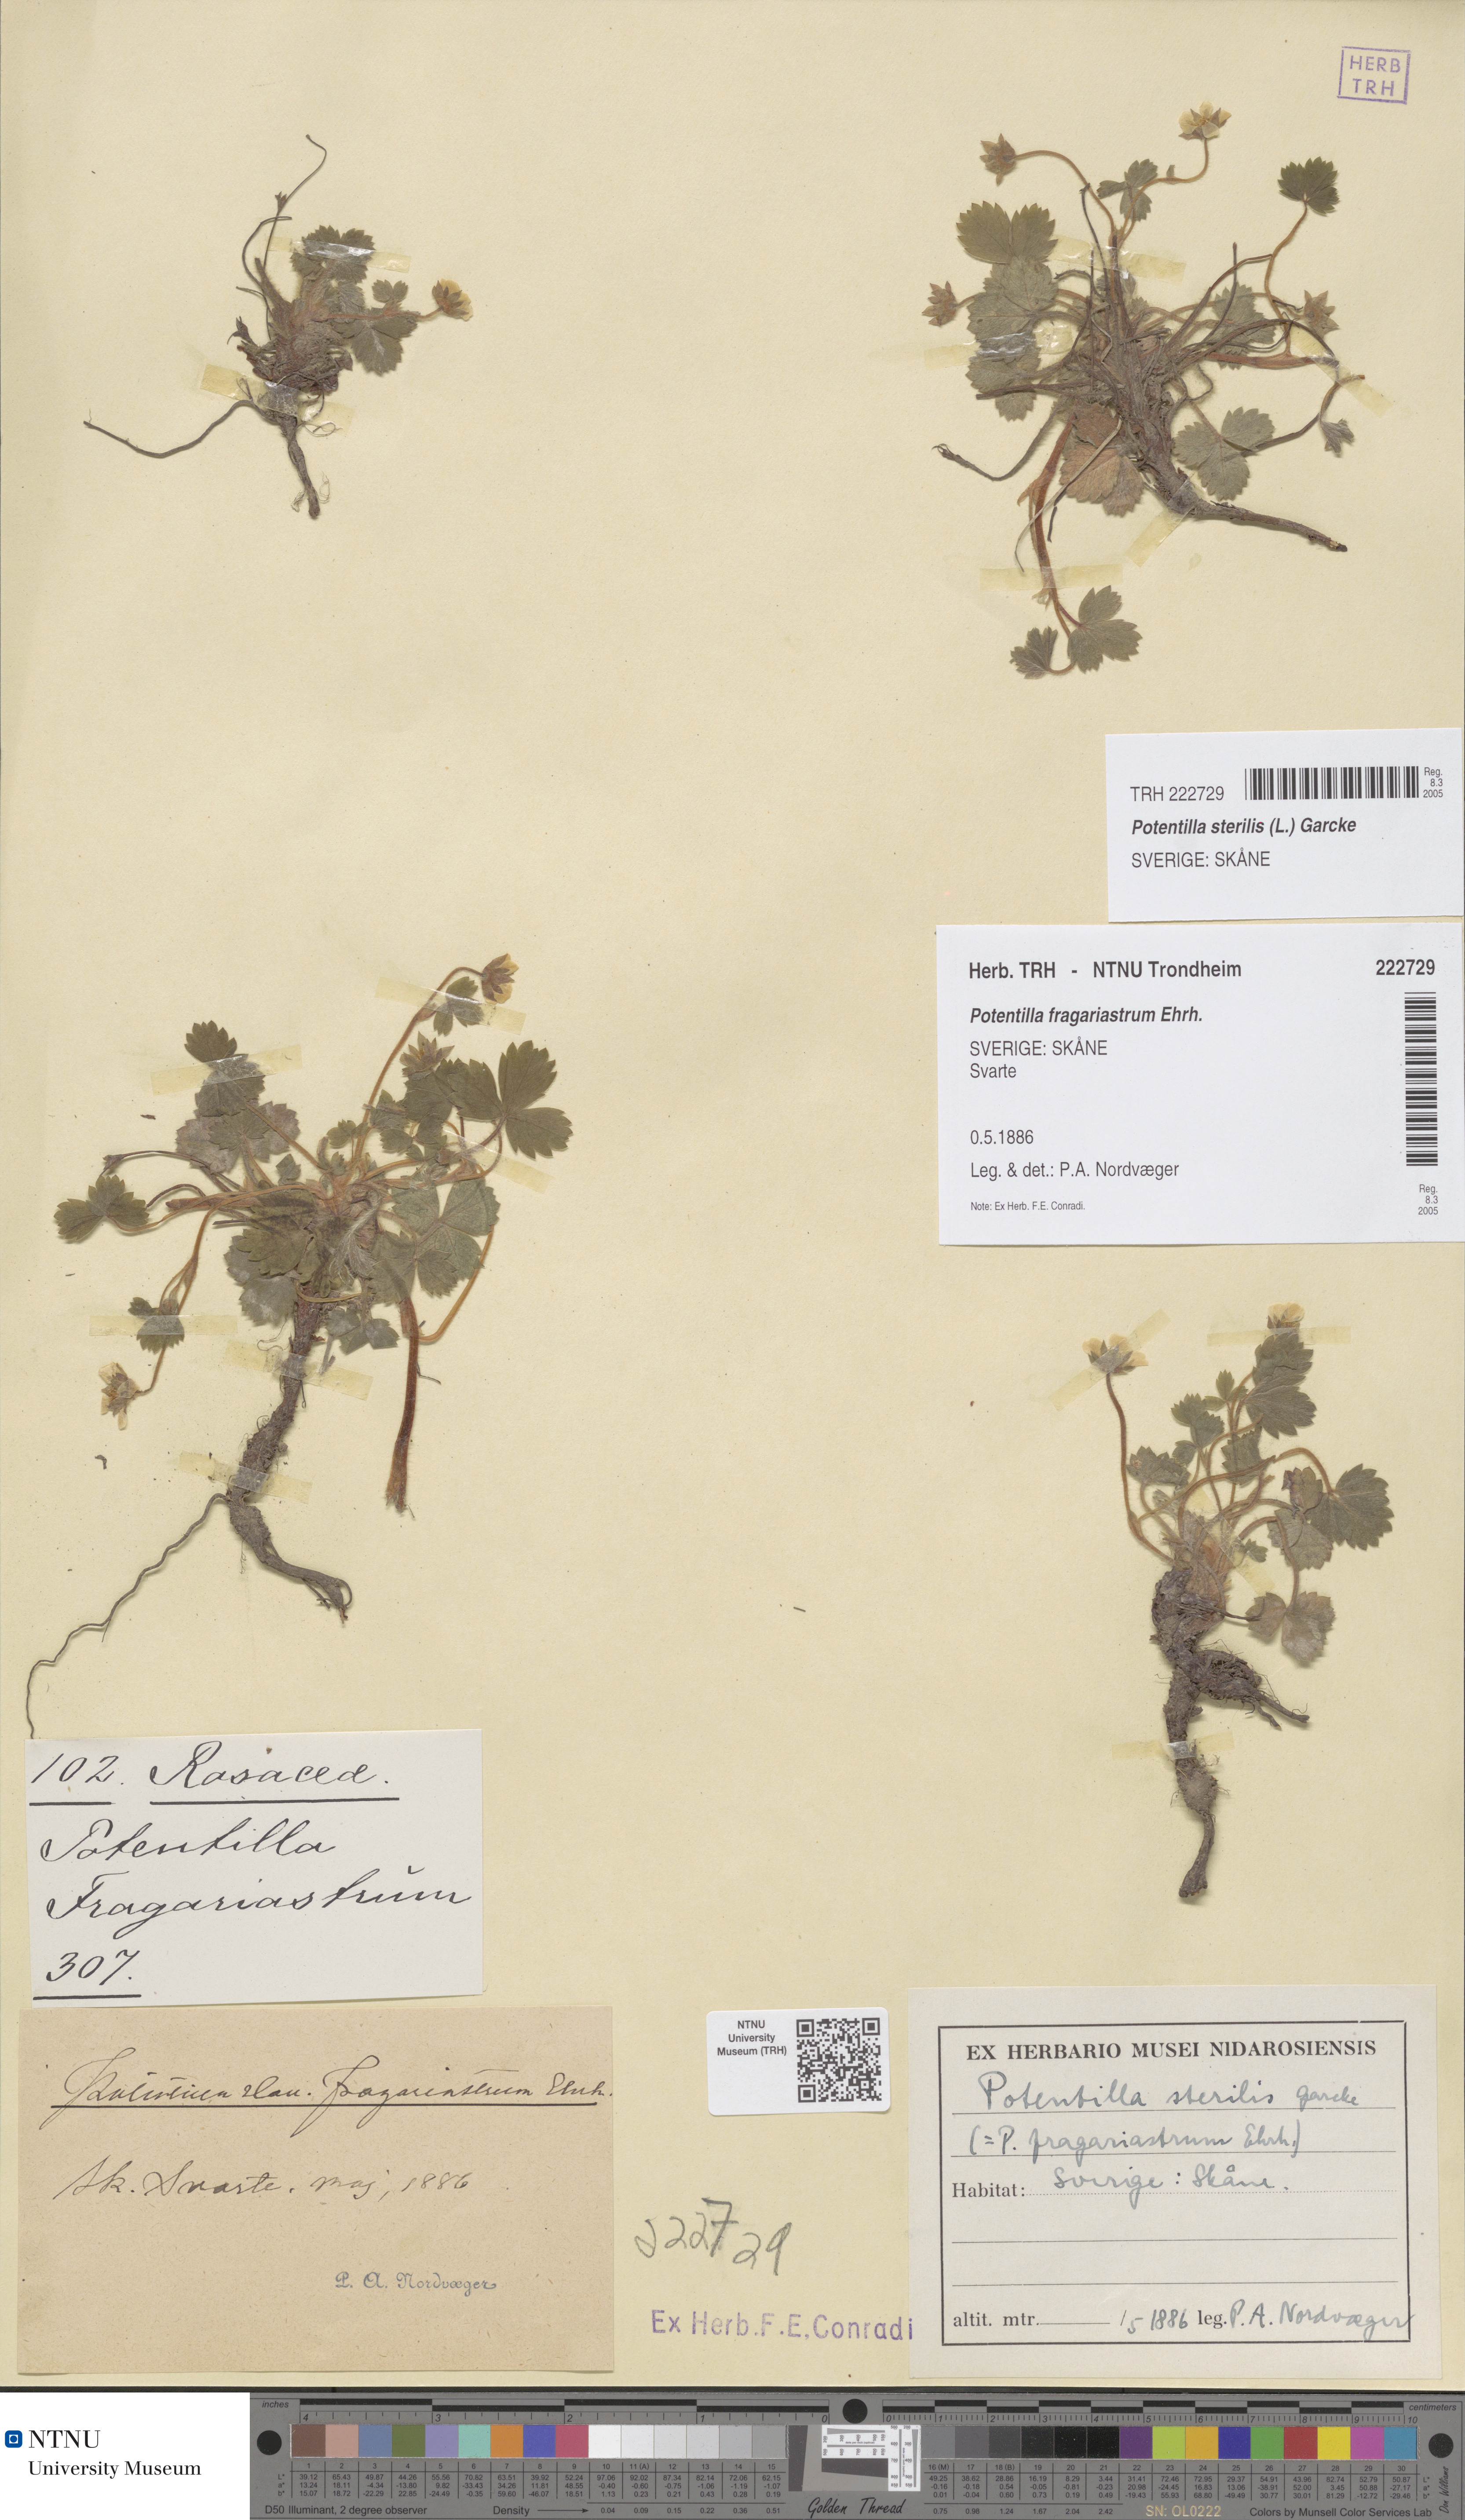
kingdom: Plantae
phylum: Tracheophyta
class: Magnoliopsida
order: Rosales
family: Rosaceae
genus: Potentilla
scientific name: Potentilla sterilis
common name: Barren strawberry
